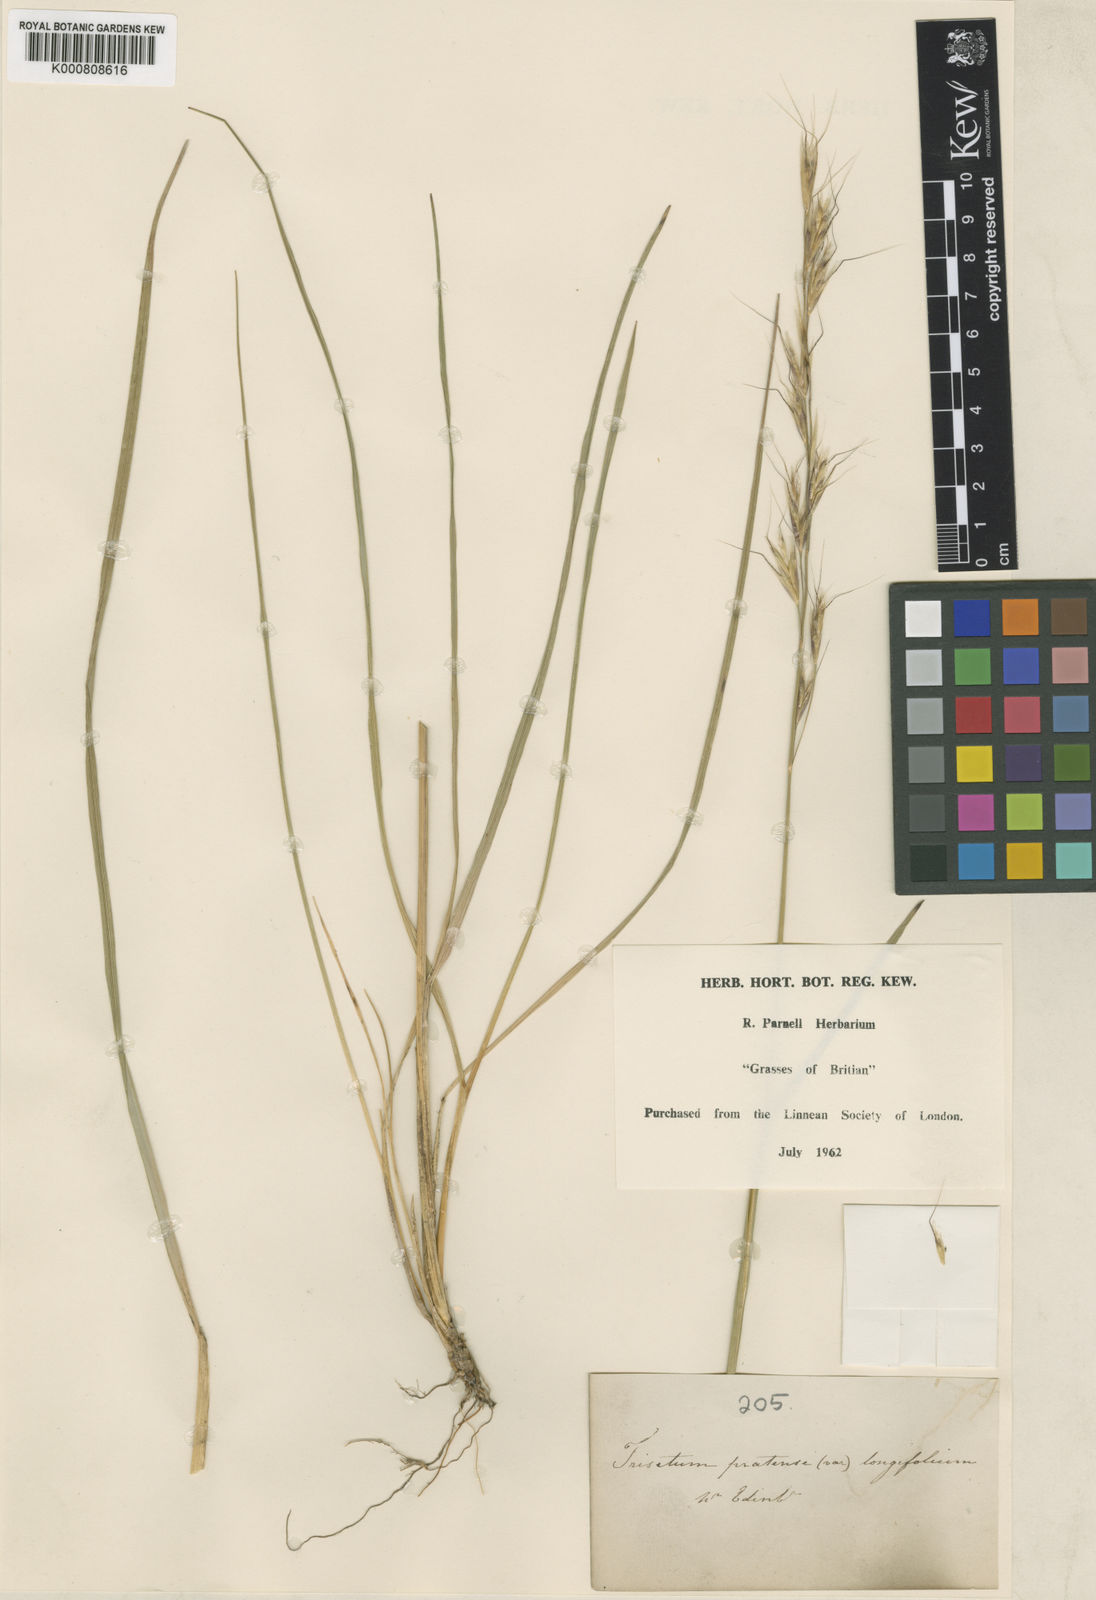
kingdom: Plantae
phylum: Tracheophyta
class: Liliopsida
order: Poales
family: Poaceae
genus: Helictochloa
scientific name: Helictochloa pratensis
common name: Meadow oat grass
